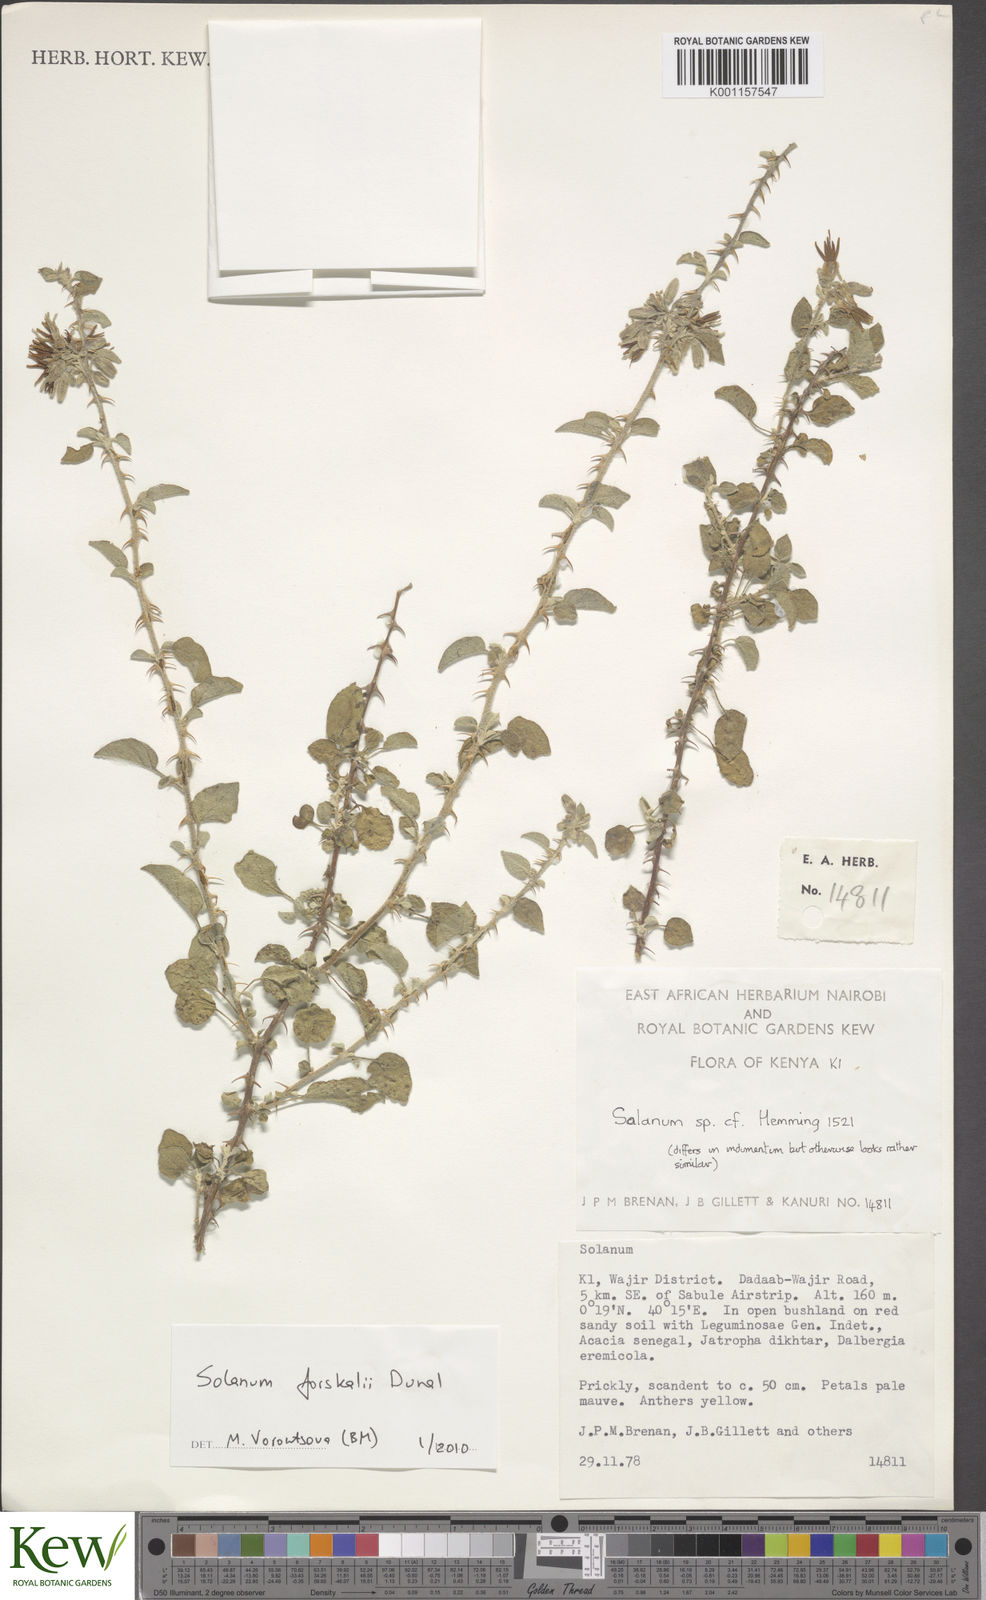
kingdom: Plantae
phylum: Tracheophyta
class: Magnoliopsida
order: Solanales
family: Solanaceae
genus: Solanum
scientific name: Solanum
